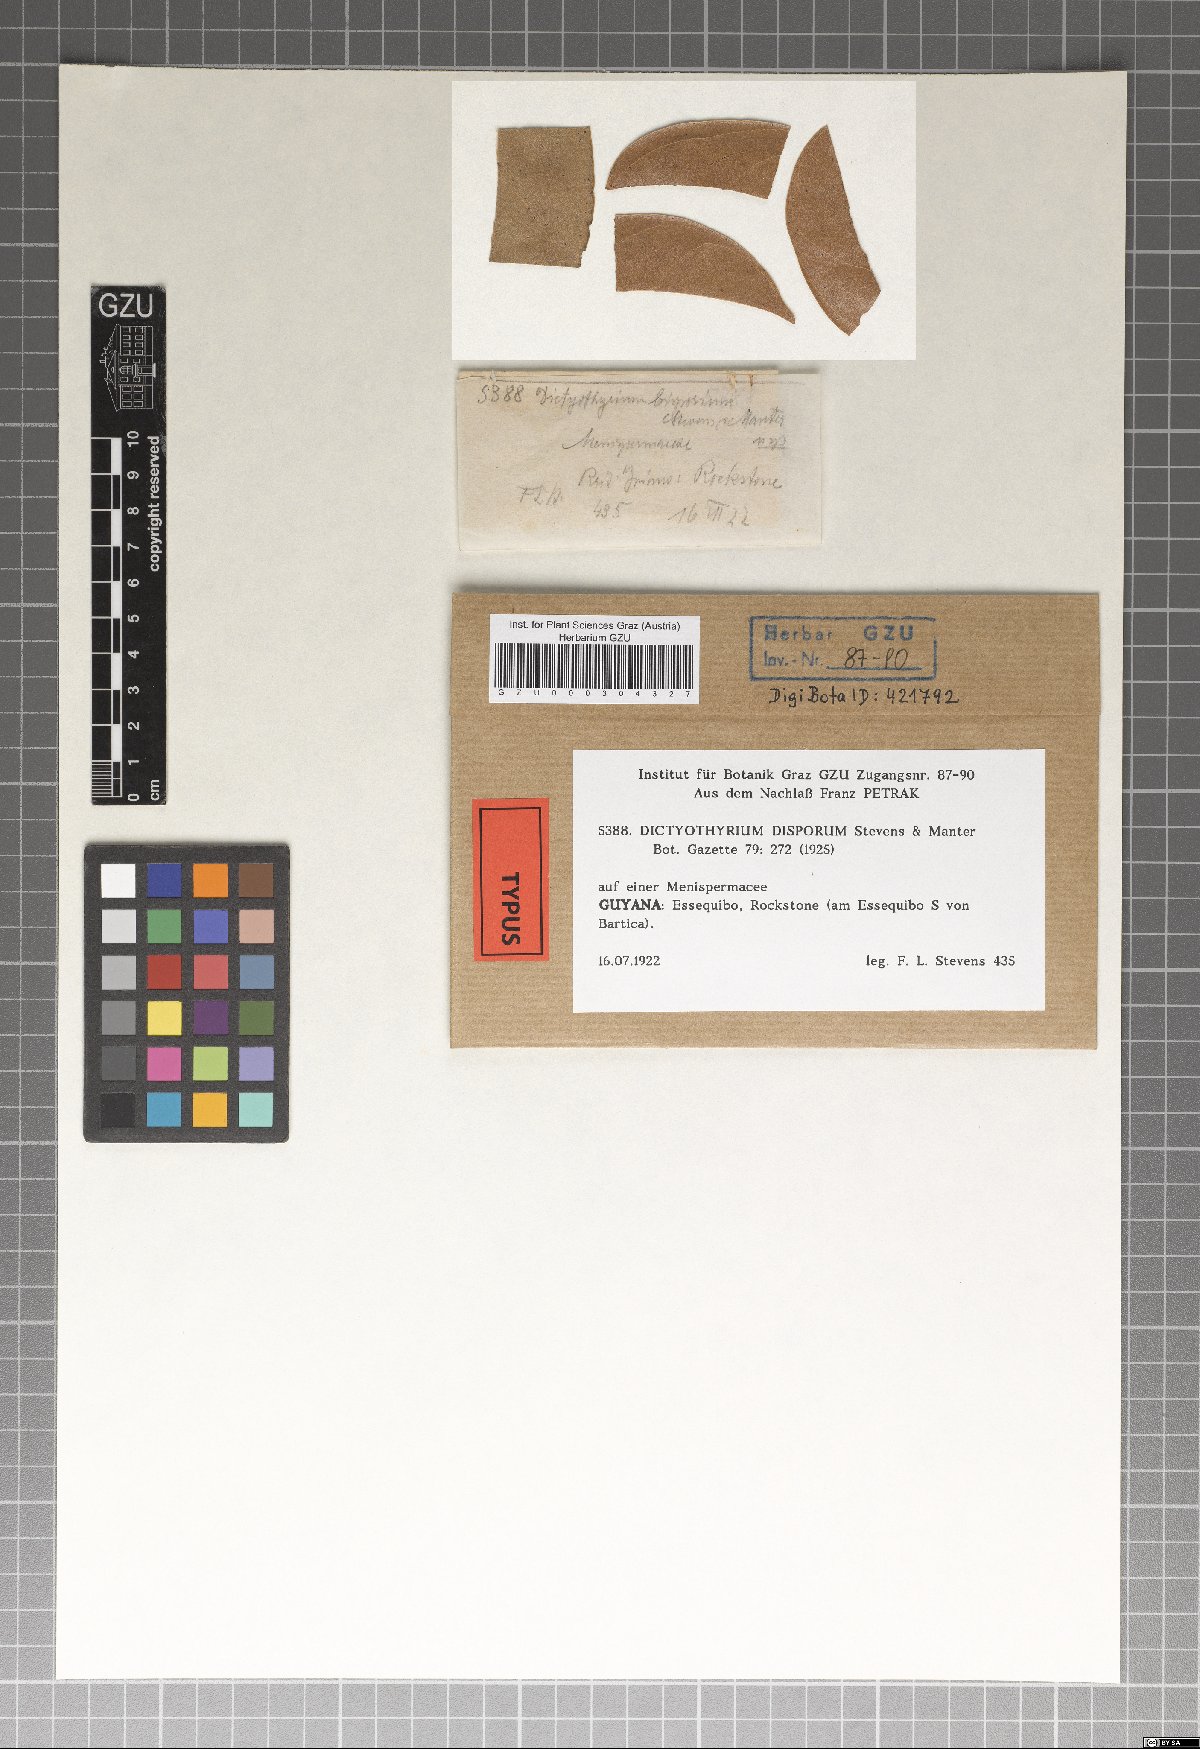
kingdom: Fungi
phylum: Ascomycota
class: Dothideomycetes
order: Microthyriales
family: Micropeltidaceae
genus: Dictyothyrium
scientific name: Dictyothyrium disporum
